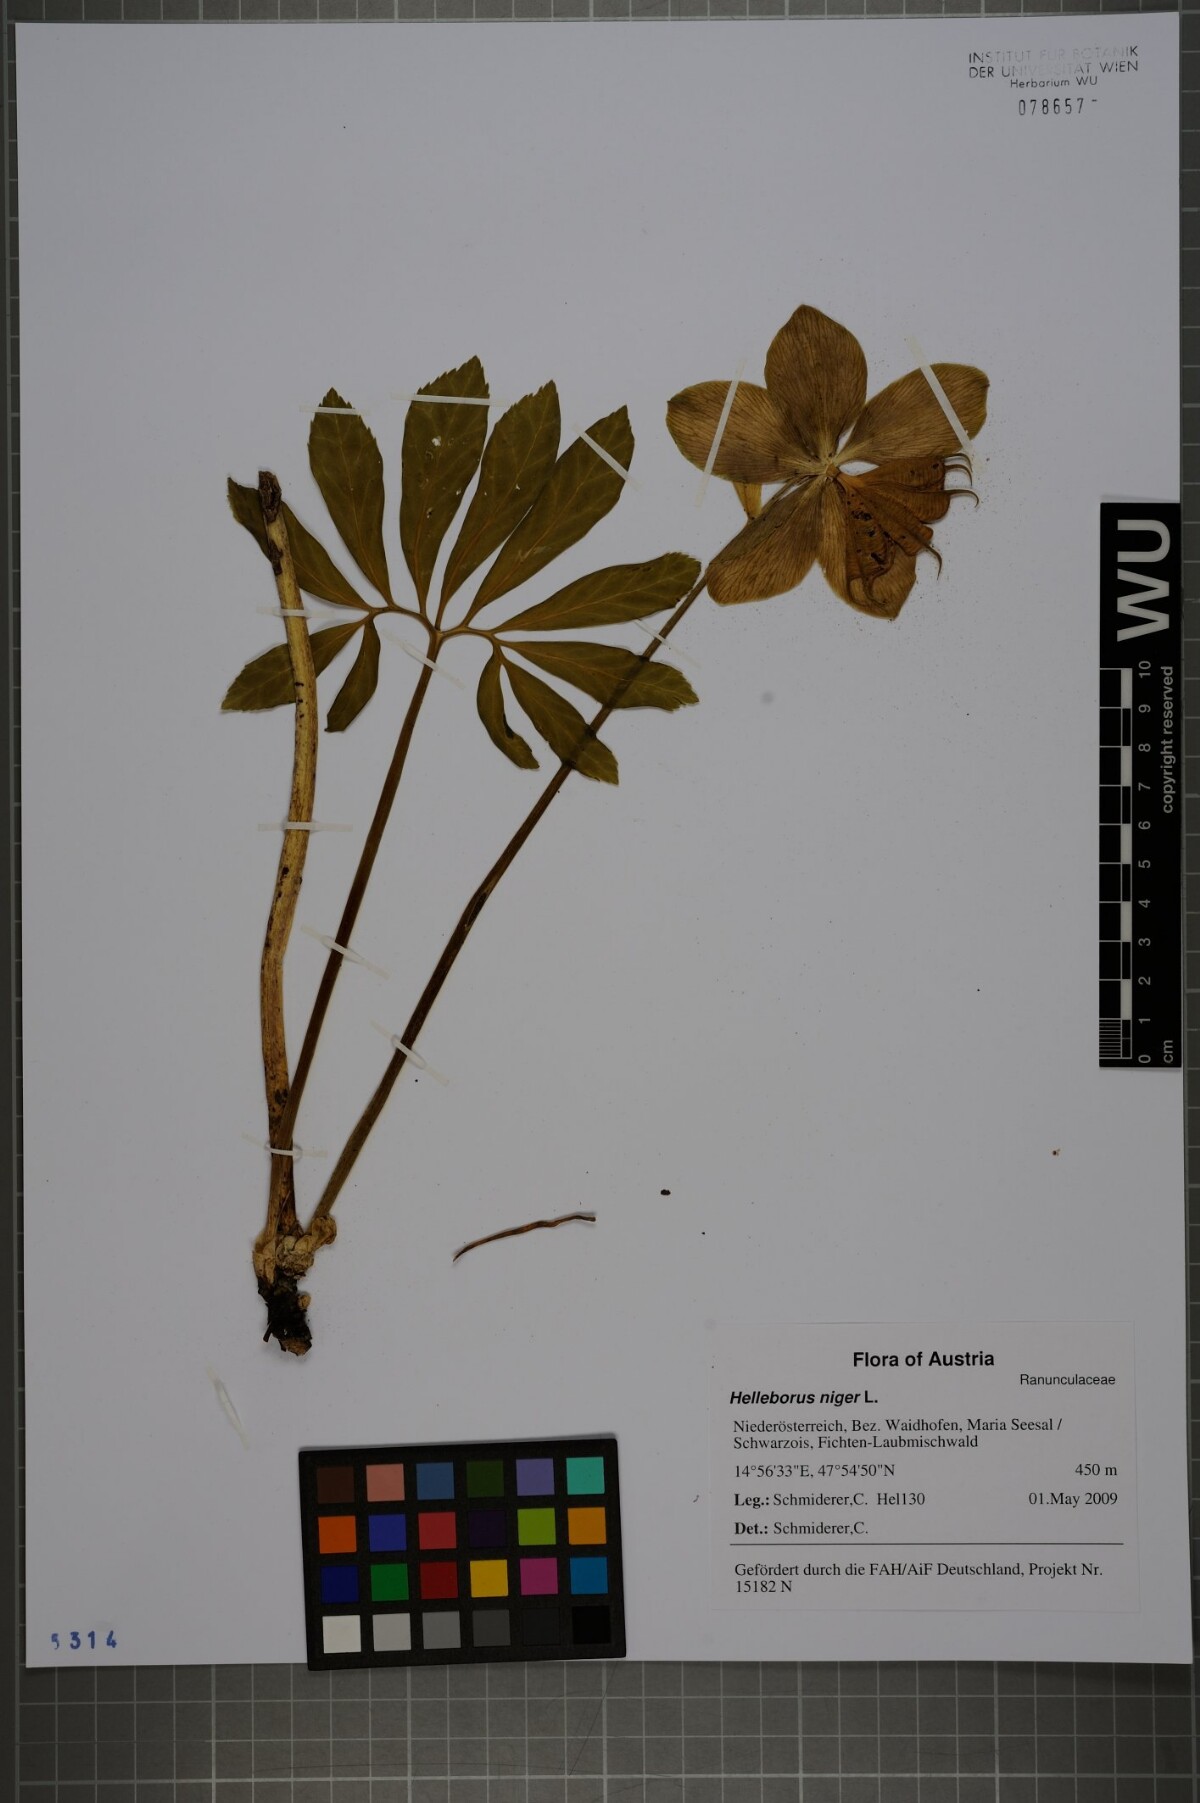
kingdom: Plantae
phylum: Tracheophyta
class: Magnoliopsida
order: Ranunculales
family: Ranunculaceae
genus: Helleborus
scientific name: Helleborus niger
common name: Black hellebore
